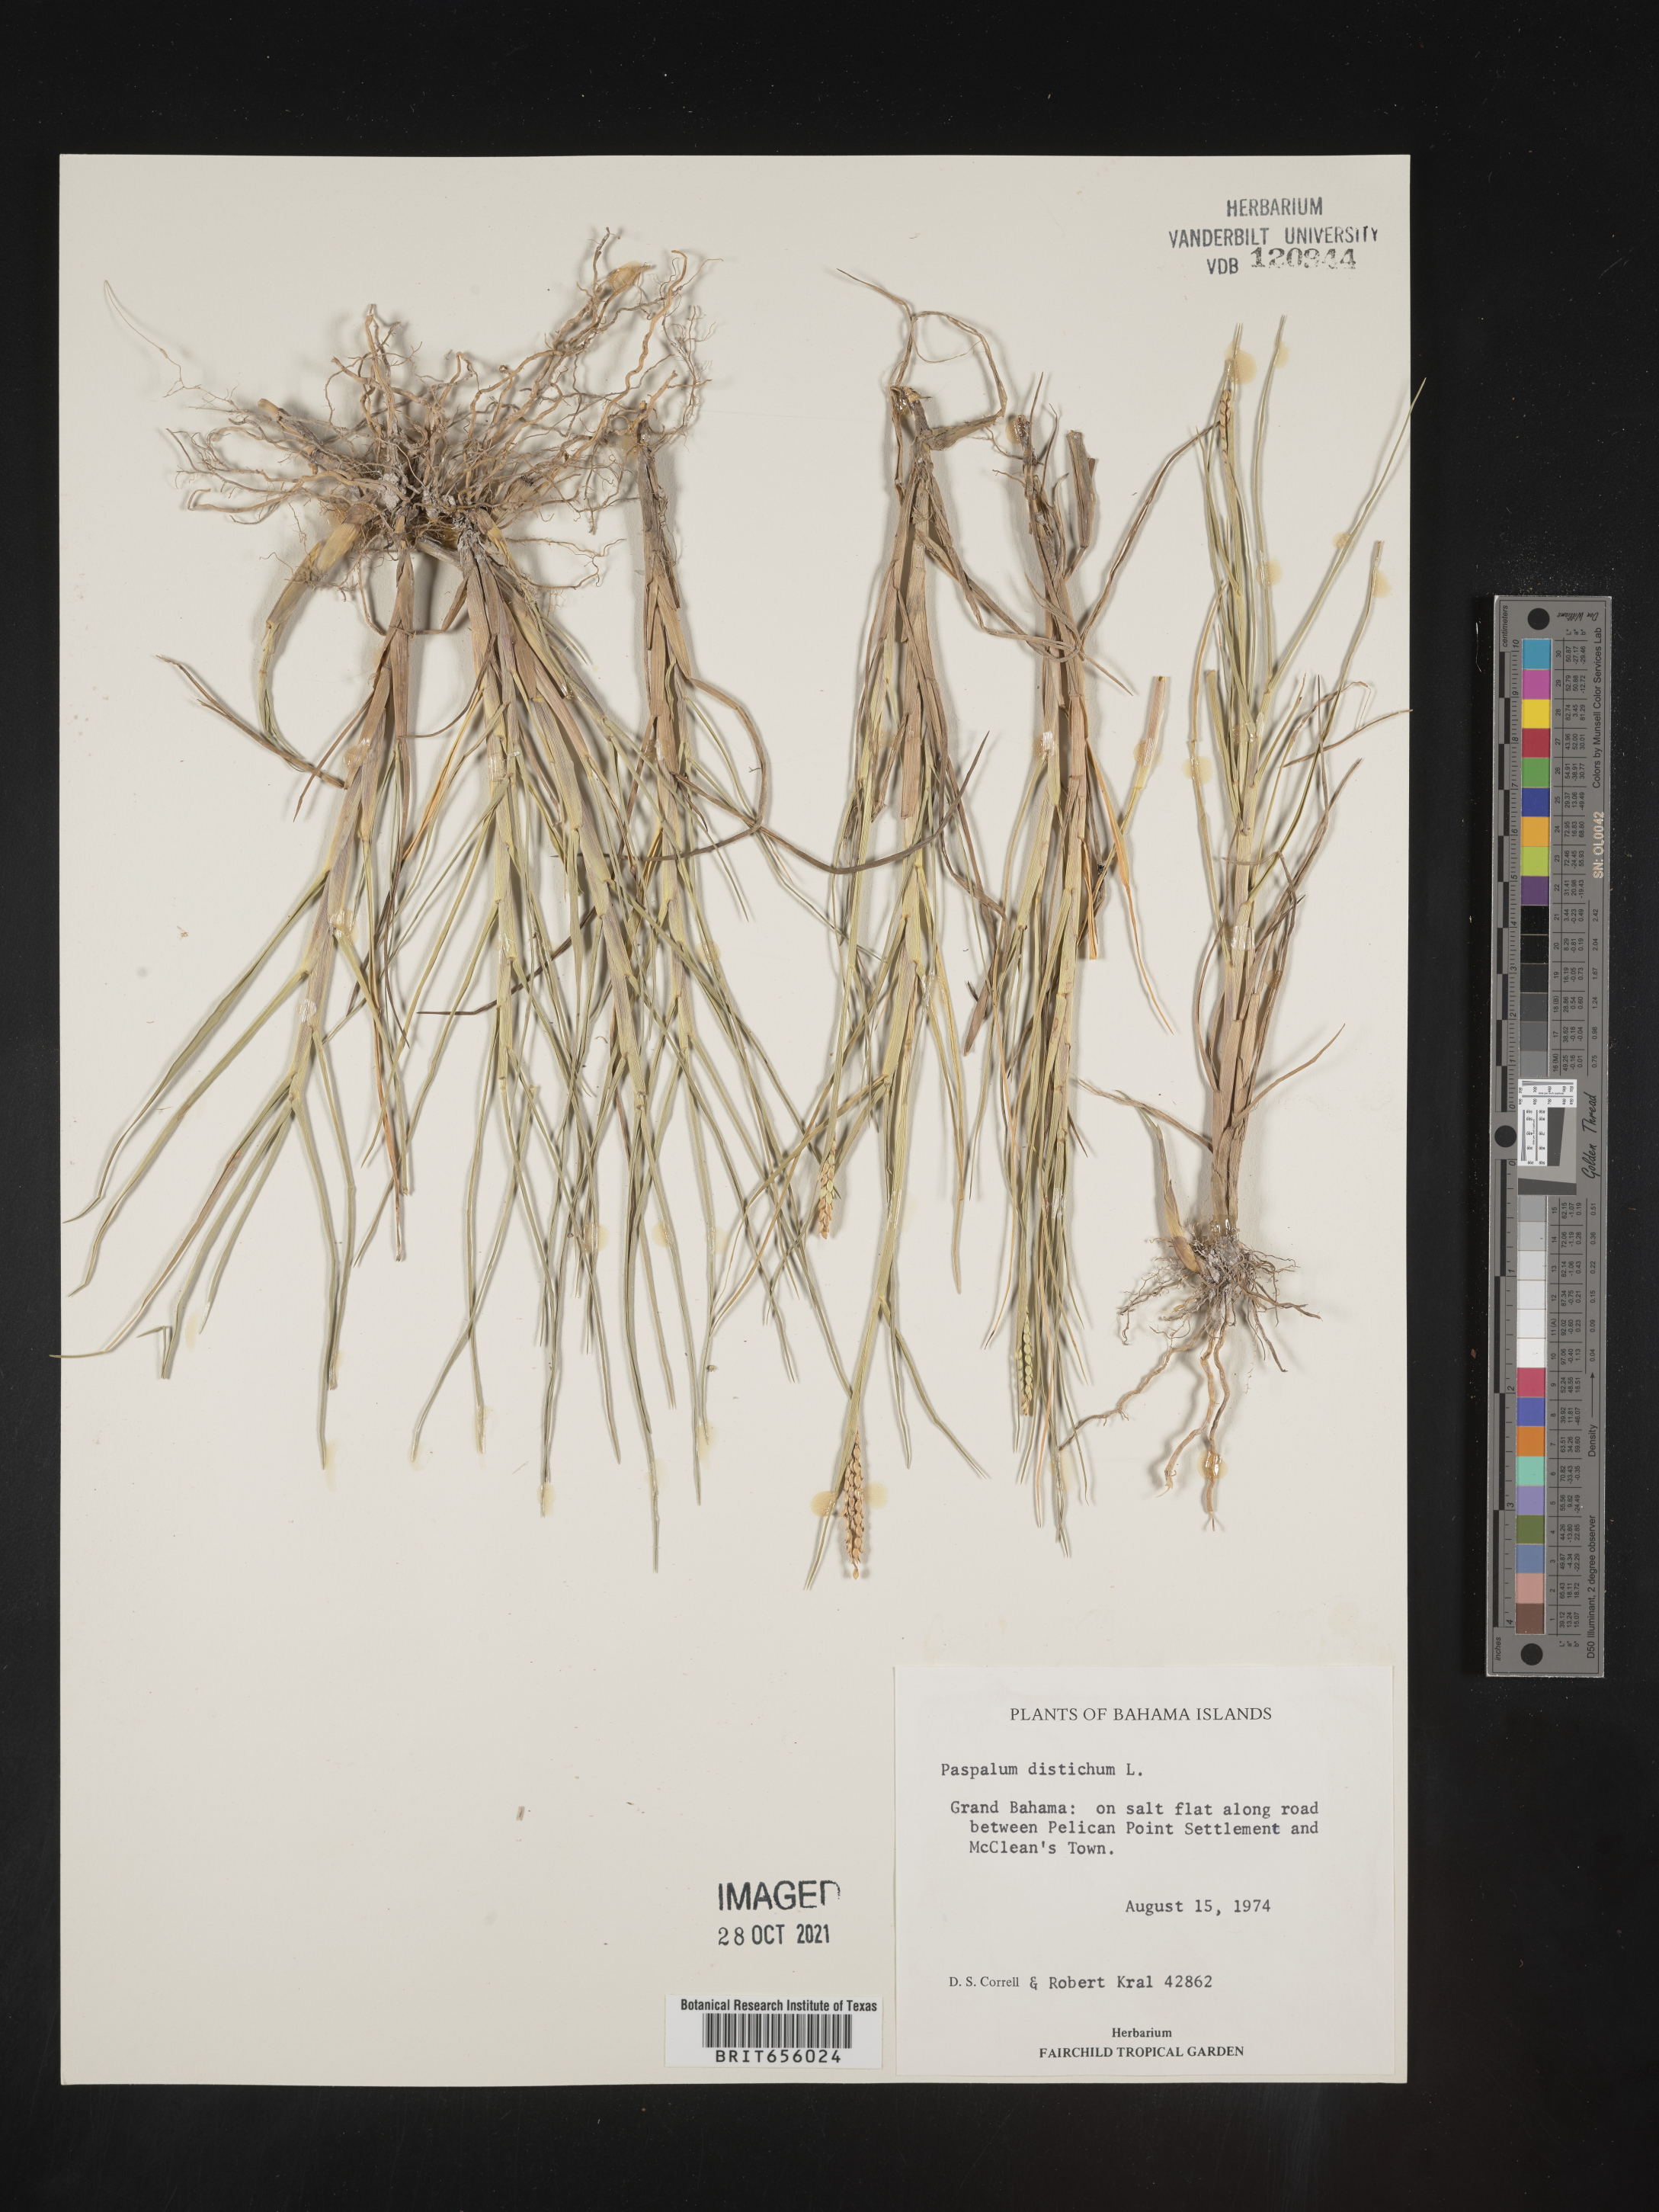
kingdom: Plantae
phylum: Tracheophyta
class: Liliopsida
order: Poales
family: Poaceae
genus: Paspalum
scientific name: Paspalum
